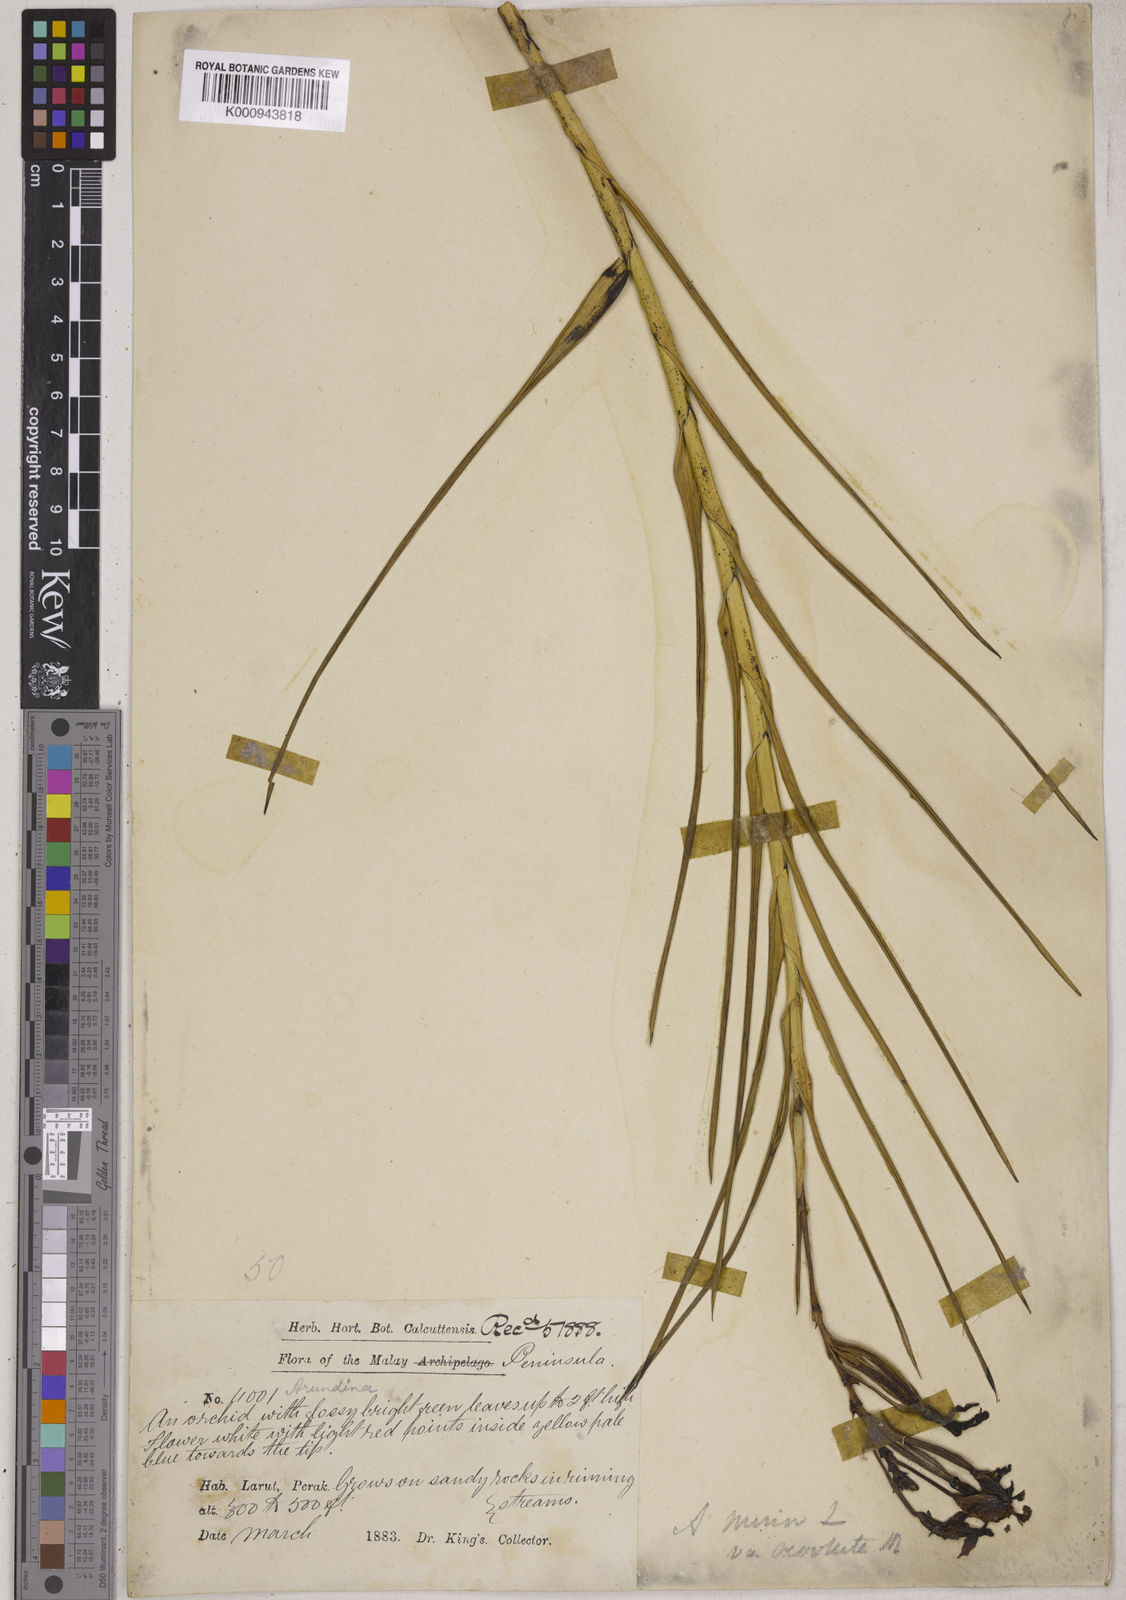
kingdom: Plantae
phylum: Tracheophyta
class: Liliopsida
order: Asparagales
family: Orchidaceae
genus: Arundina
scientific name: Arundina graminifolia
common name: Bamboo orchid
